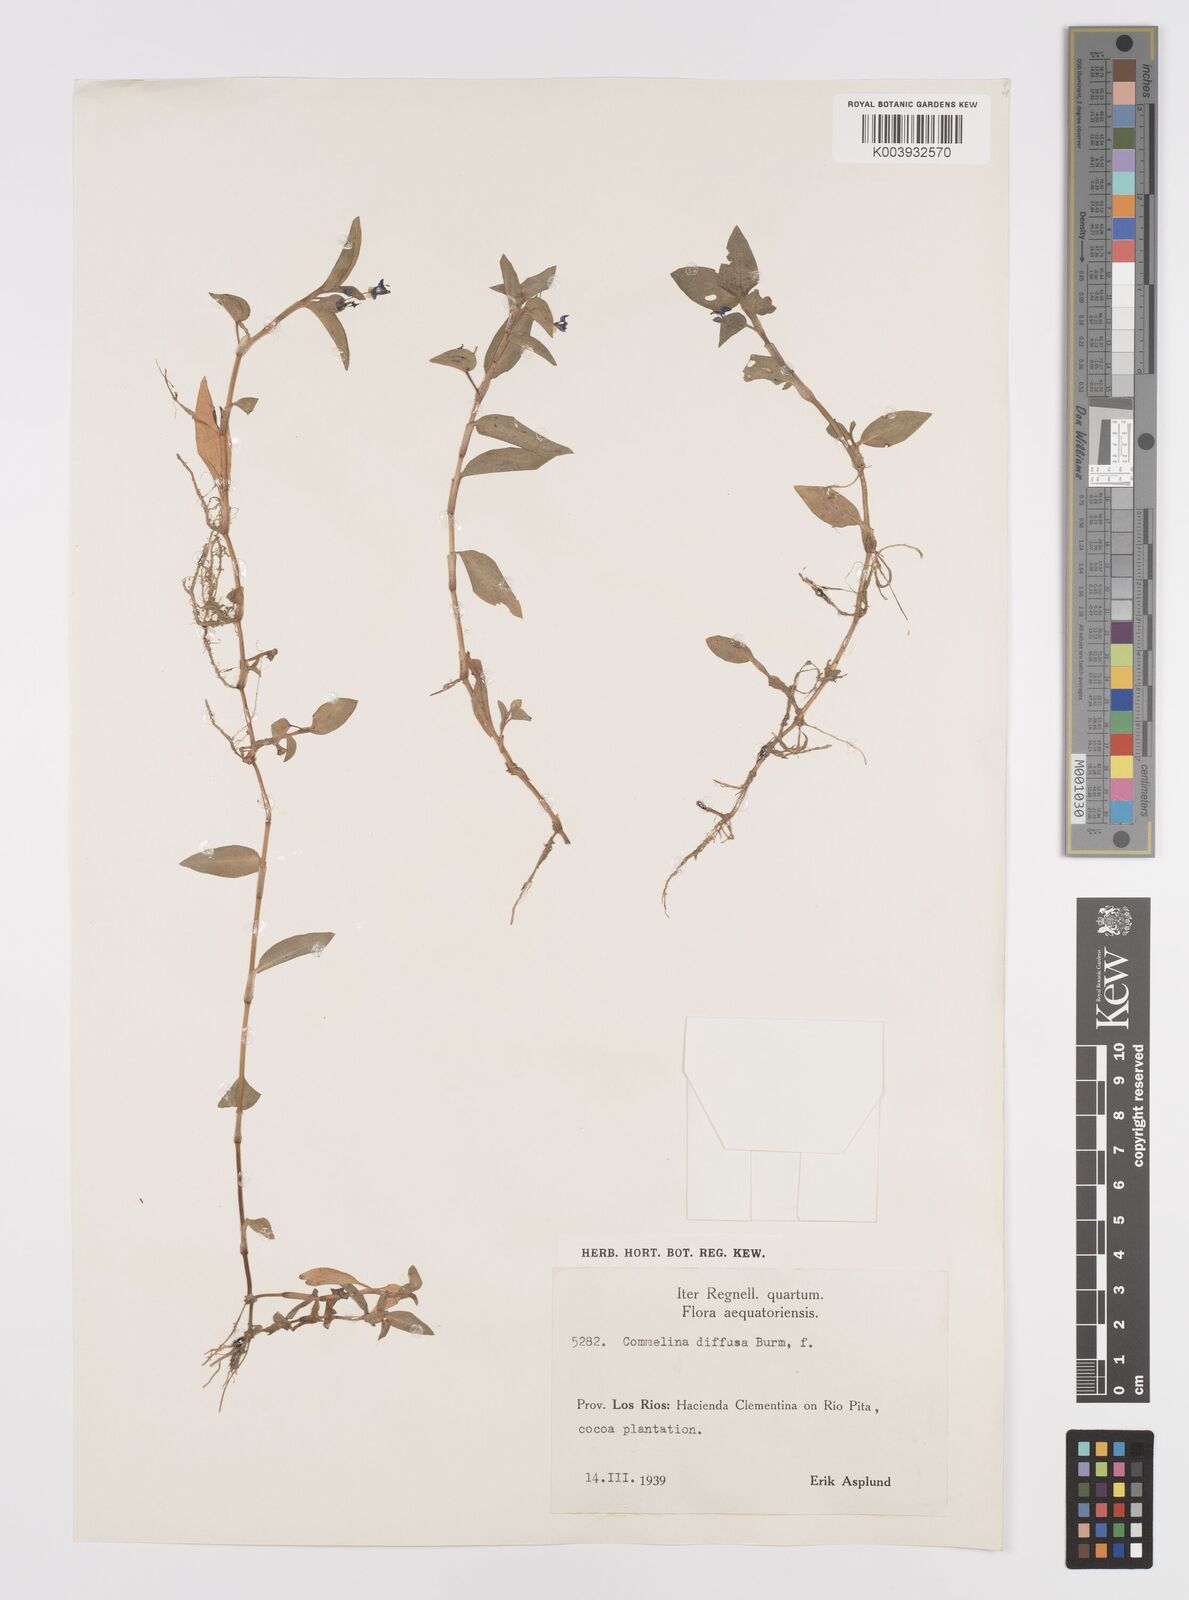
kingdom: Plantae
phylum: Tracheophyta
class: Liliopsida
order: Commelinales
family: Commelinaceae
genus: Commelina
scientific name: Commelina diffusa
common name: Climbing dayflower
